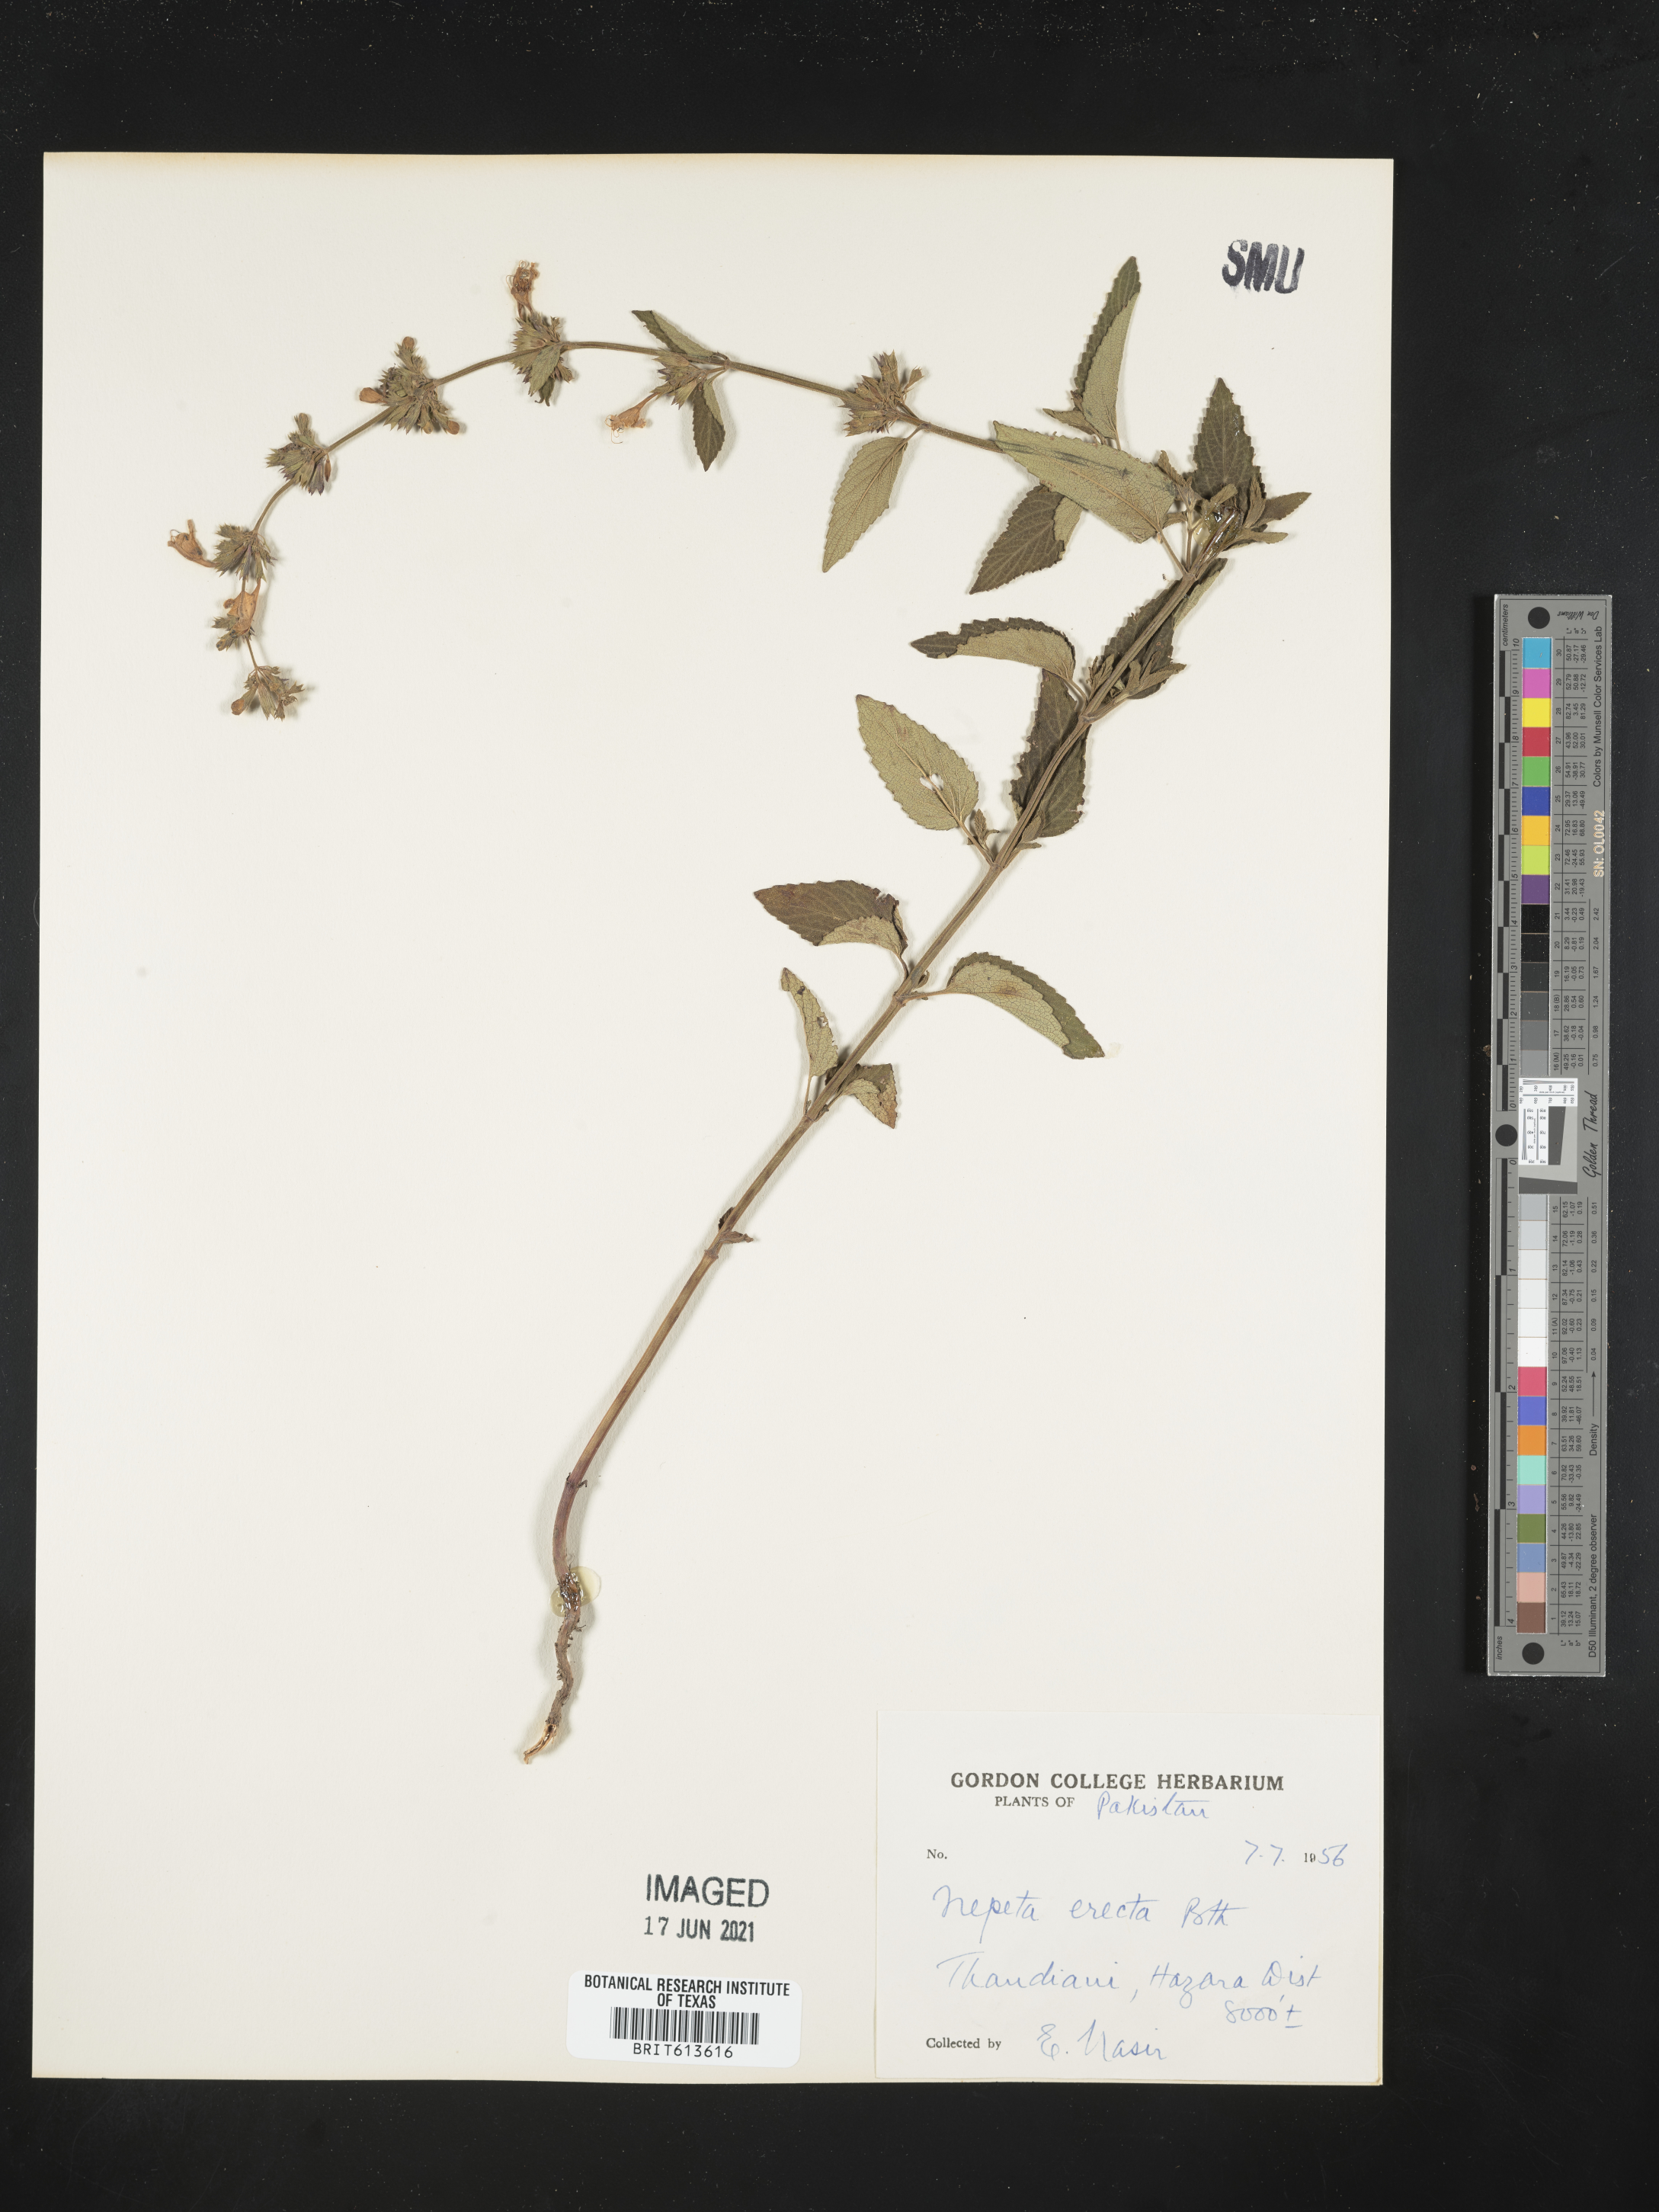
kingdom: Plantae
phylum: Tracheophyta
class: Magnoliopsida
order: Lamiales
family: Lamiaceae
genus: Nepeta
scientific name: Nepeta erecta
